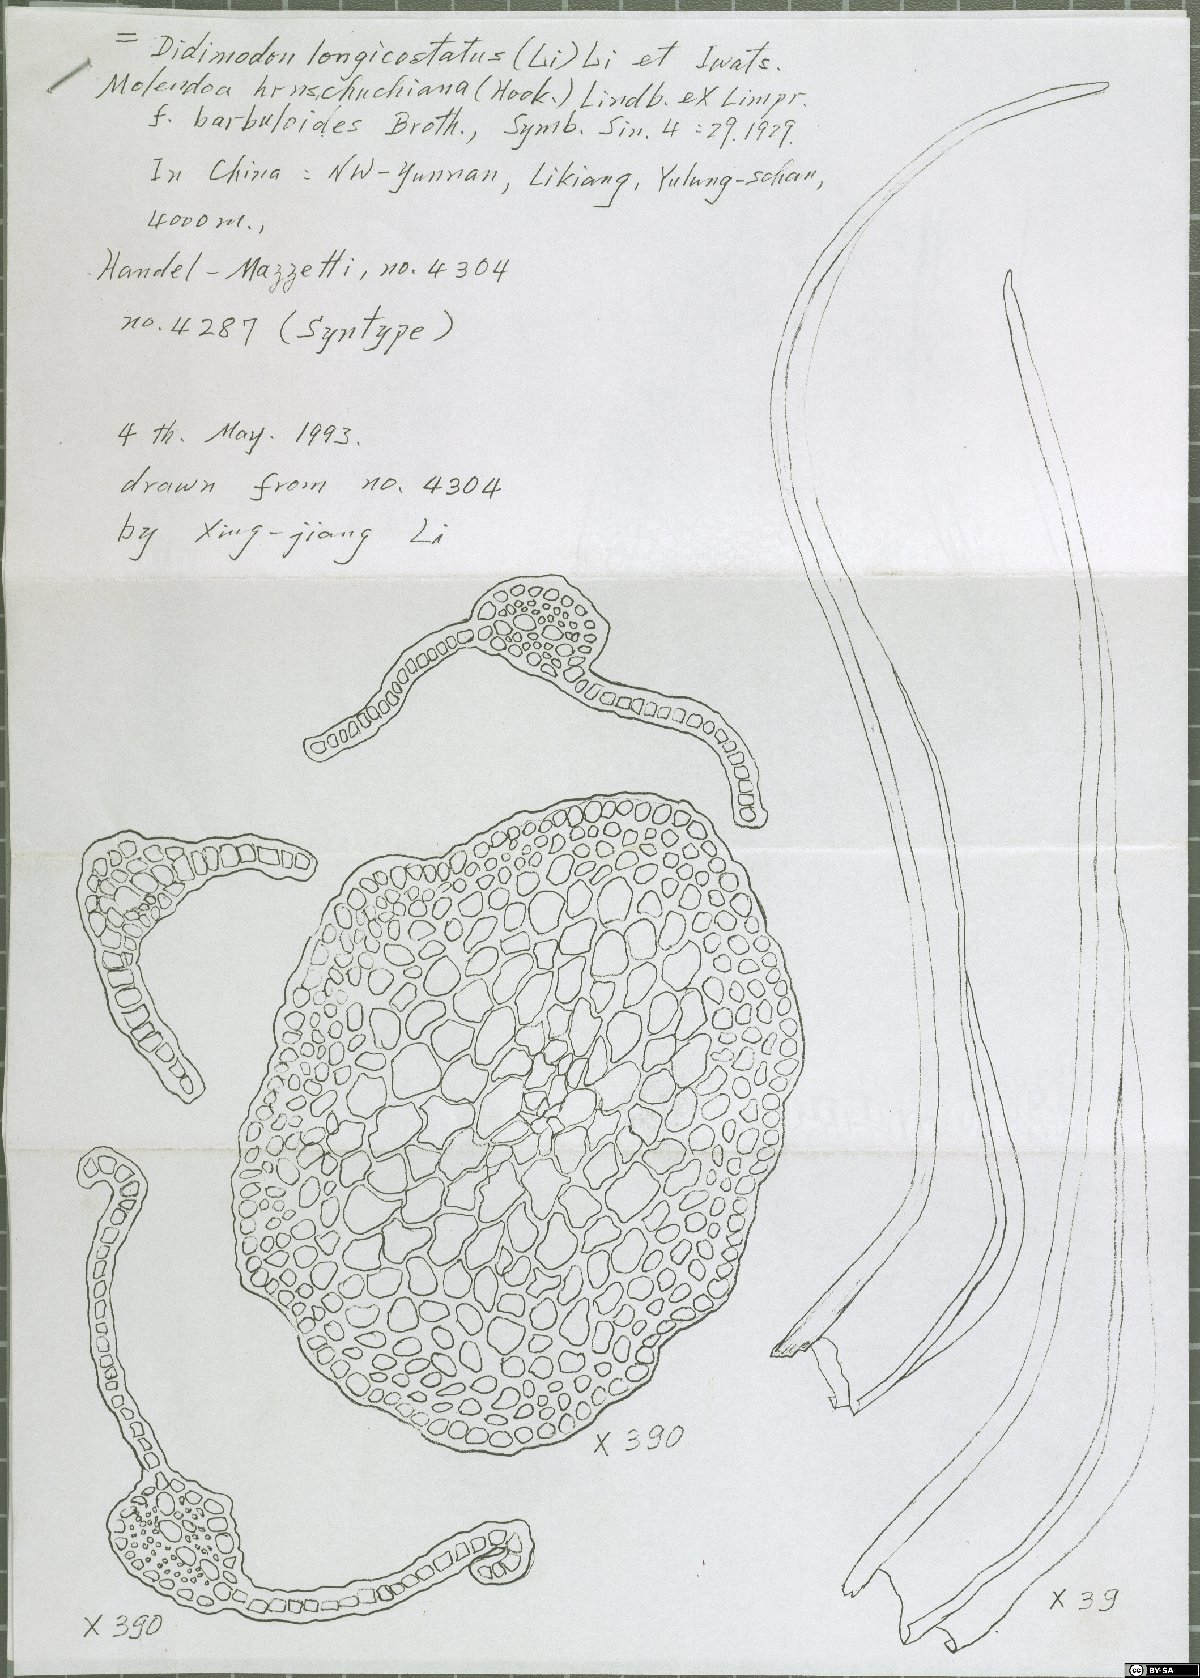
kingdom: Plantae
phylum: Bryophyta
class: Bryopsida
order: Pottiales
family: Pottiaceae
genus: Molendoa
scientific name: Molendoa hornschuchiana
